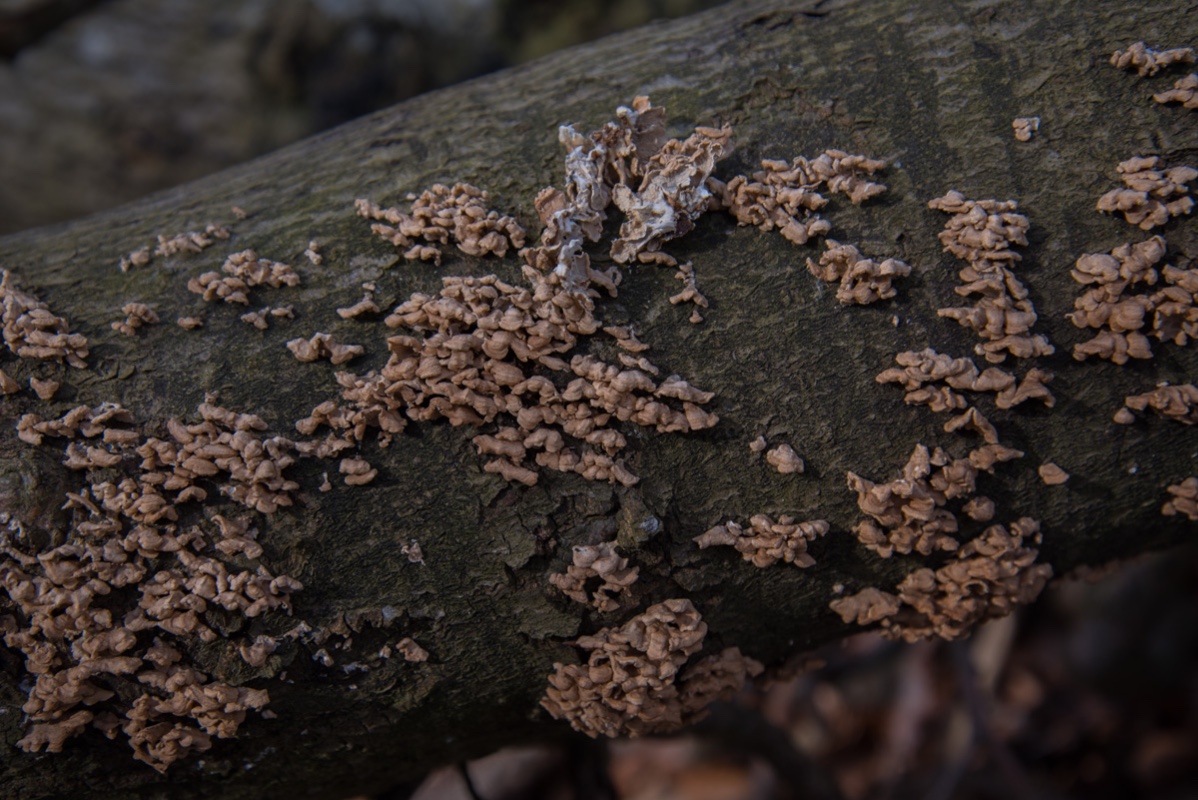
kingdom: Fungi
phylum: Basidiomycota
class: Agaricomycetes
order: Amylocorticiales
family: Amylocorticiaceae
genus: Plicaturopsis
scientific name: Plicaturopsis crispa
